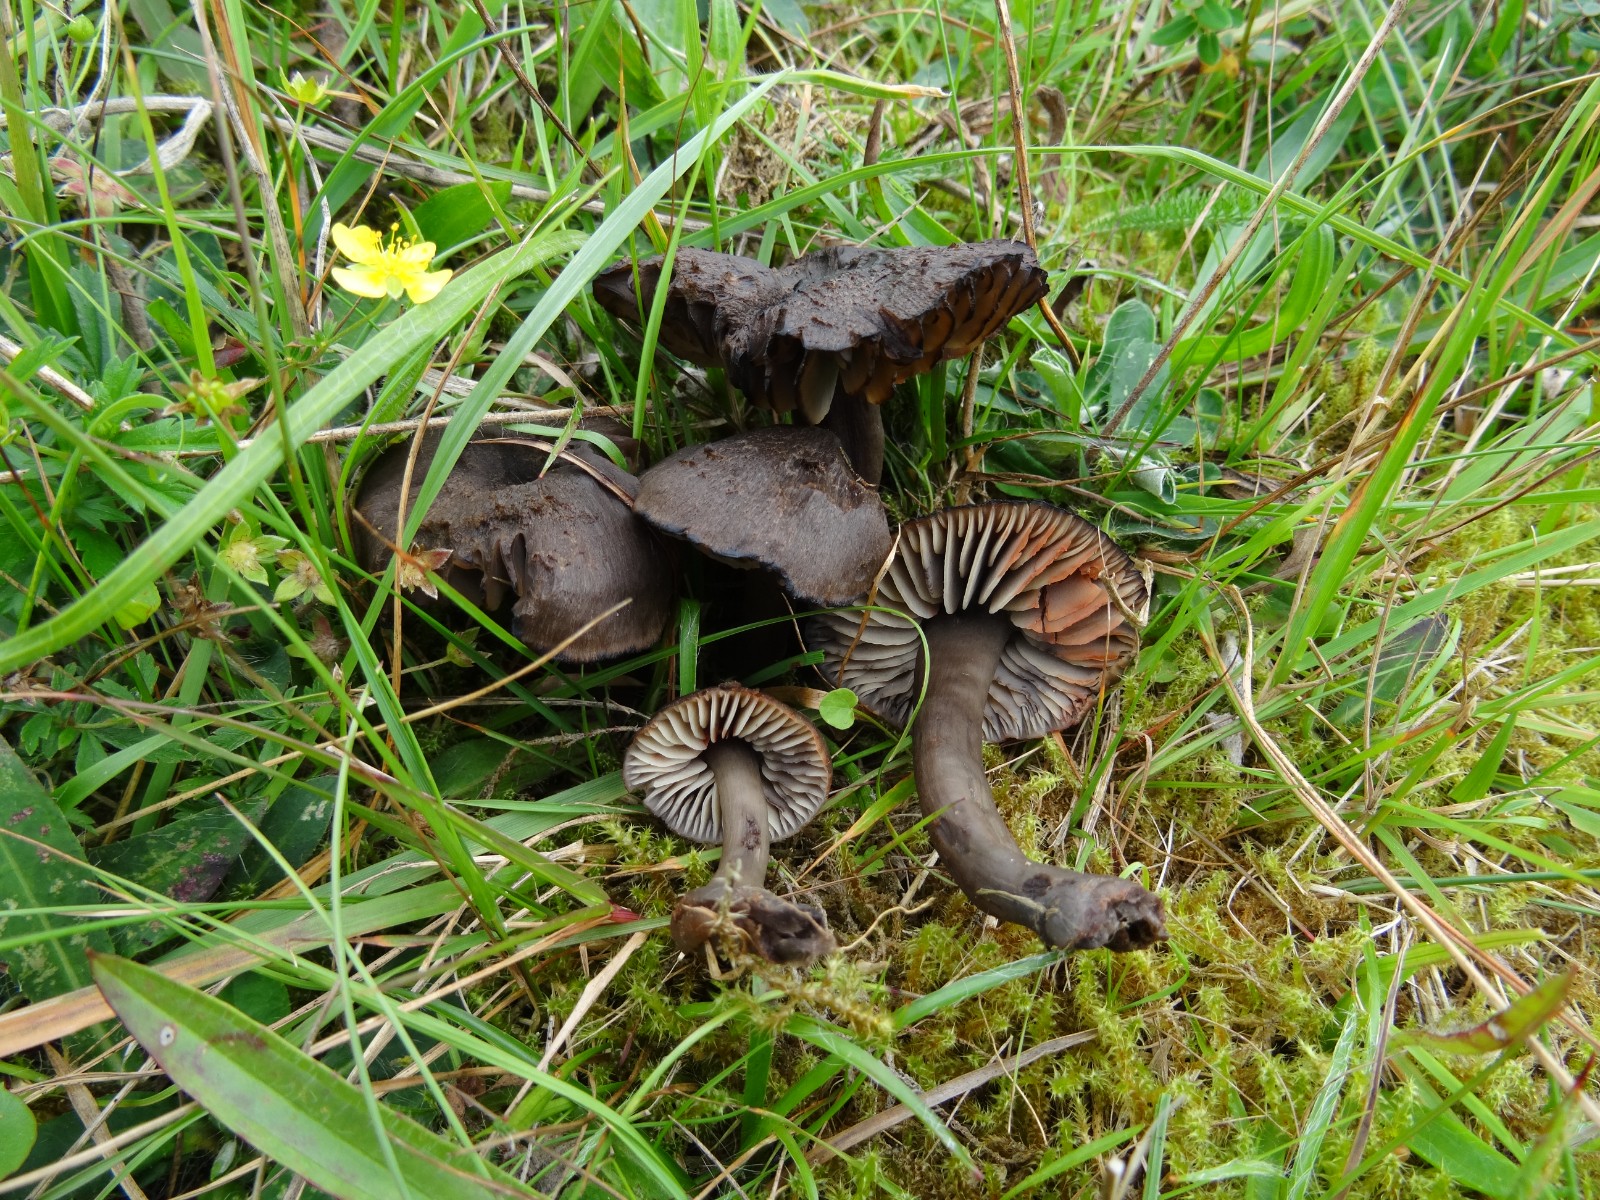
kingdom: Fungi
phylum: Basidiomycota
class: Agaricomycetes
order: Agaricales
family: Hygrophoraceae
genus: Neohygrocybe
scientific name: Neohygrocybe ovina
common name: rødmende vokshat
